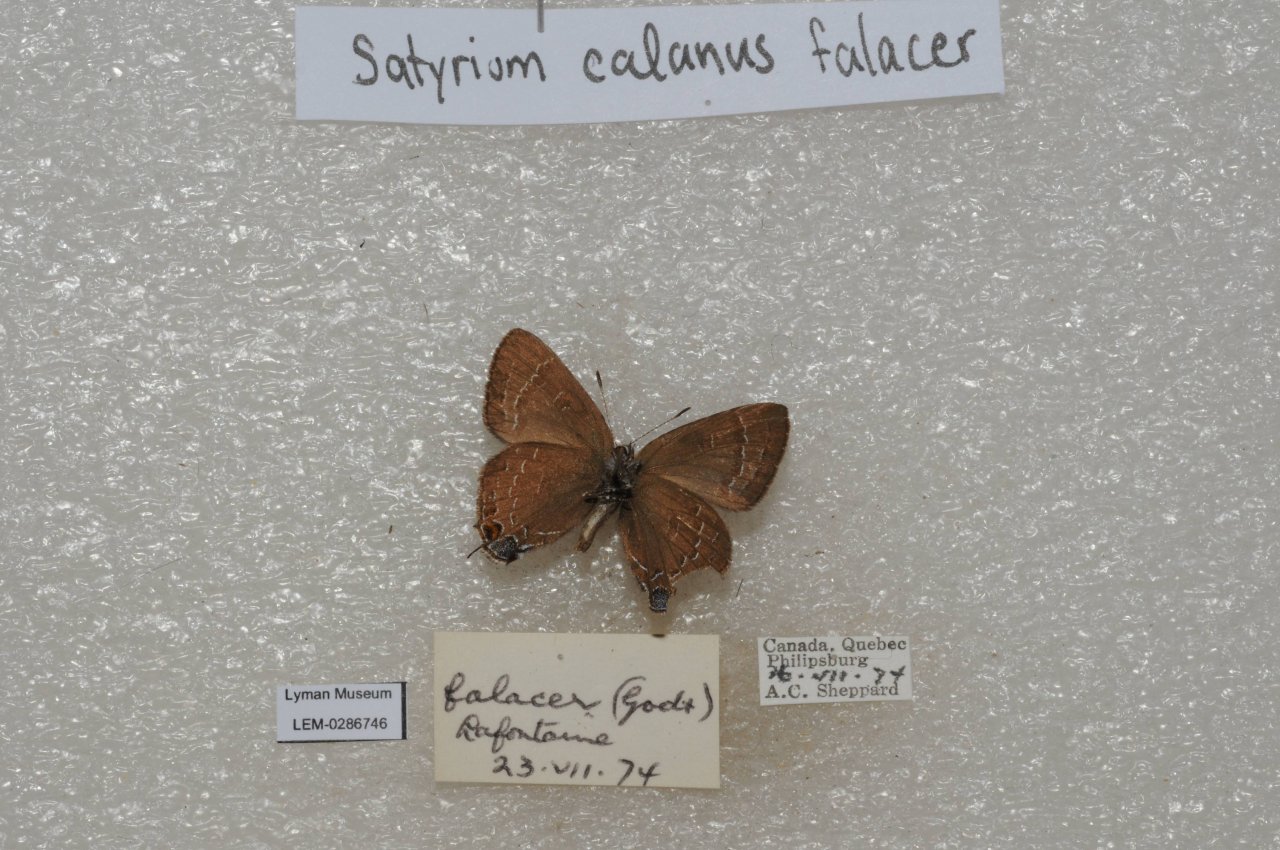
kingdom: Animalia
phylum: Arthropoda
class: Insecta
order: Lepidoptera
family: Lycaenidae
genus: Satyrium
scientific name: Satyrium calanus
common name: Banded Hairstreak
